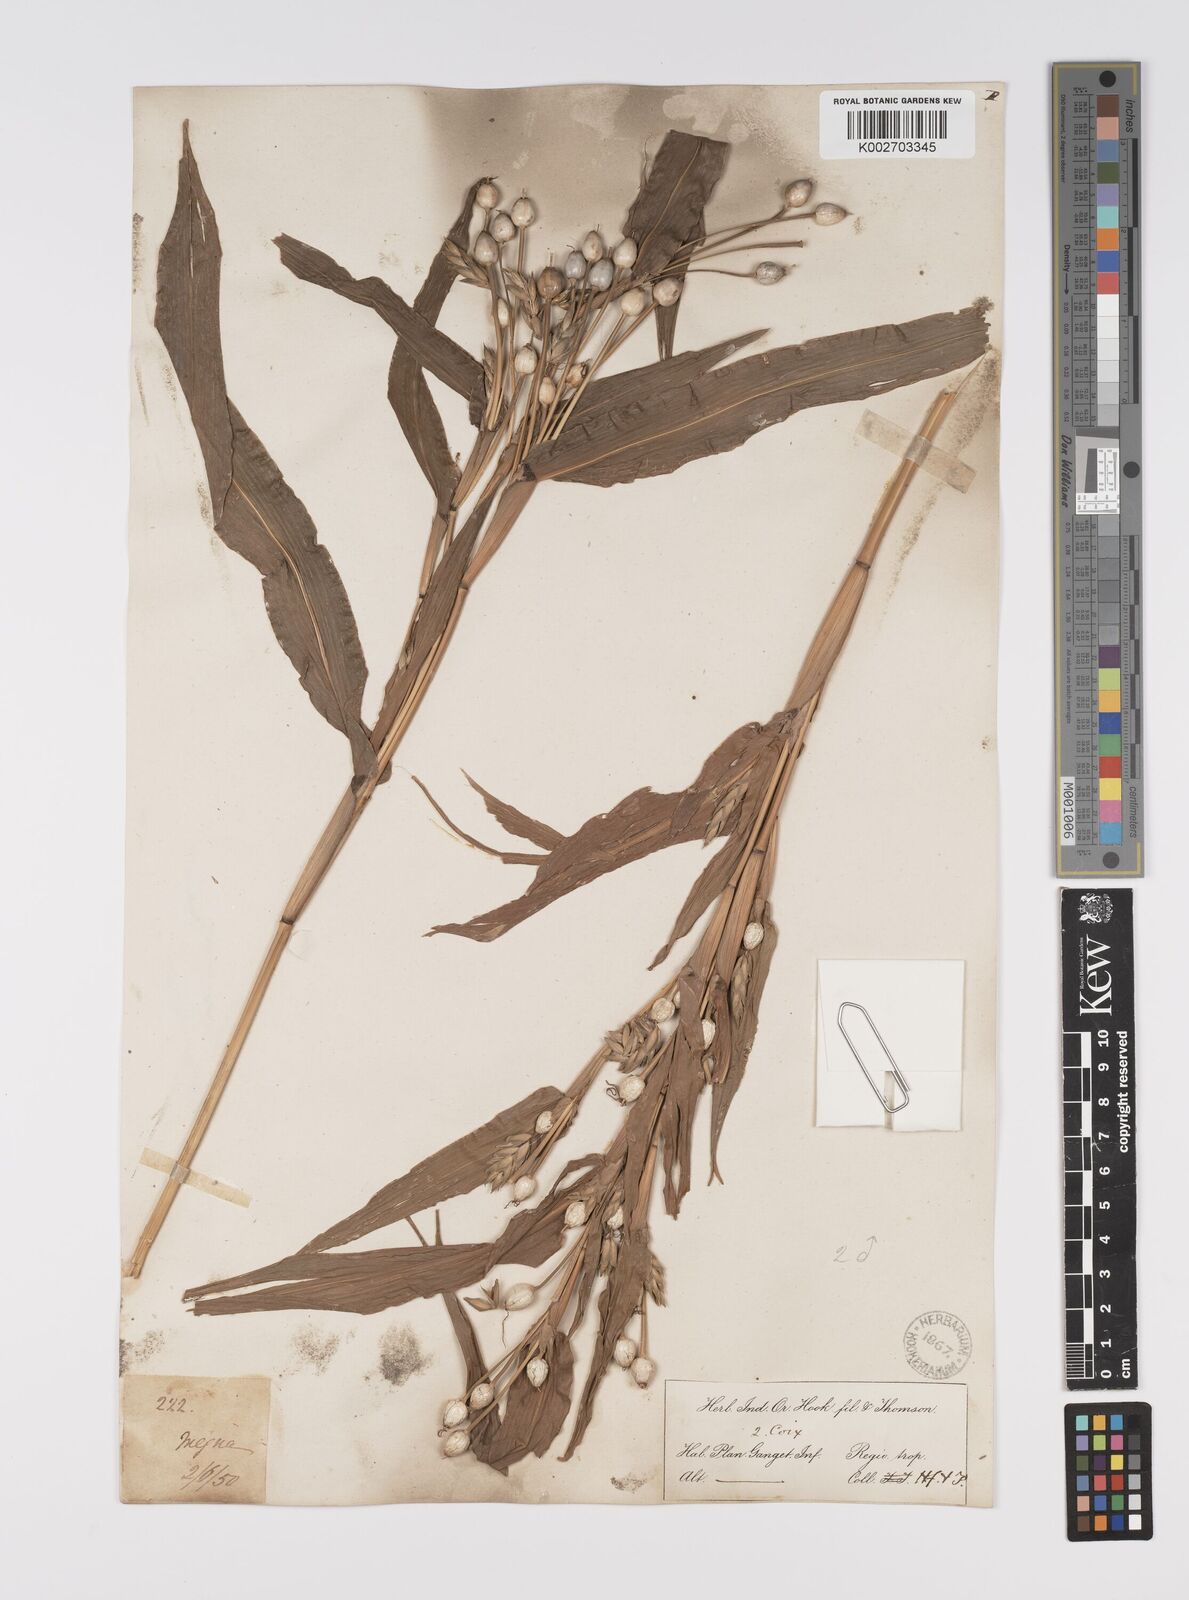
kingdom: Plantae
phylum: Tracheophyta
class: Liliopsida
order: Poales
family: Poaceae
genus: Coix
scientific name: Coix lacryma-jobi
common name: Job's tears
